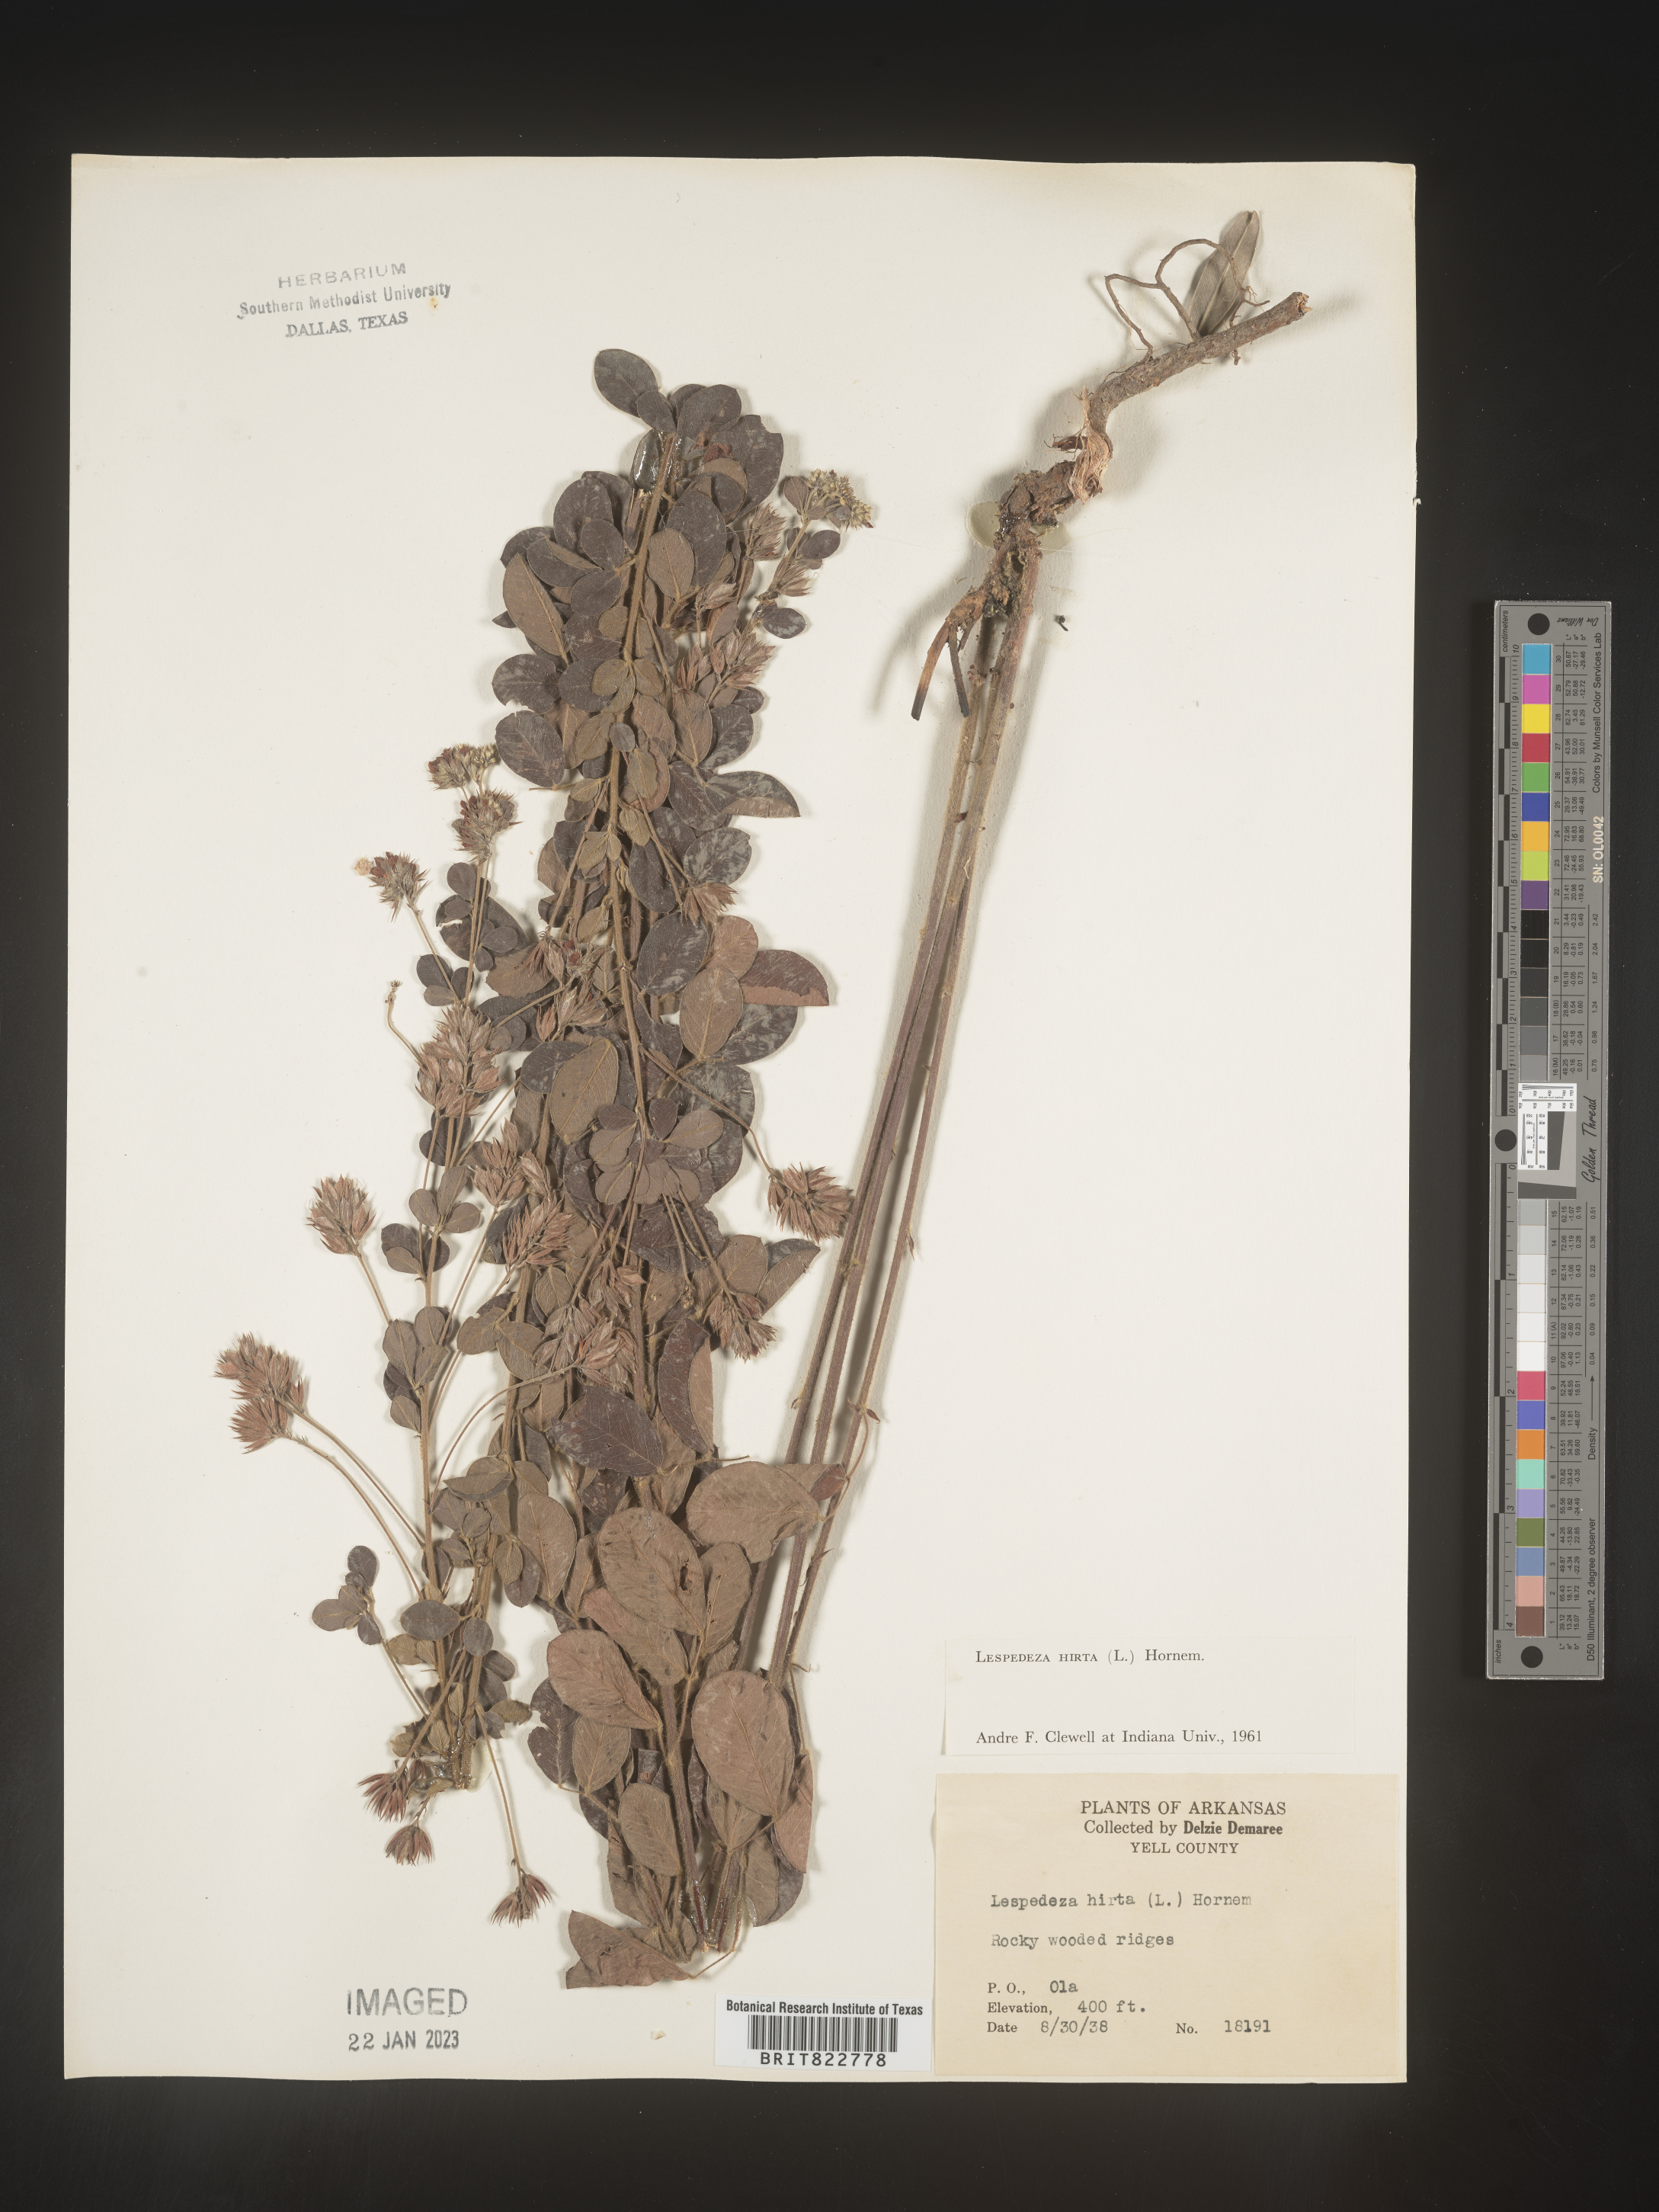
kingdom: Plantae
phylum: Tracheophyta
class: Magnoliopsida
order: Fabales
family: Fabaceae
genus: Lespedeza
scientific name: Lespedeza hirta
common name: Hairy lespedeza
